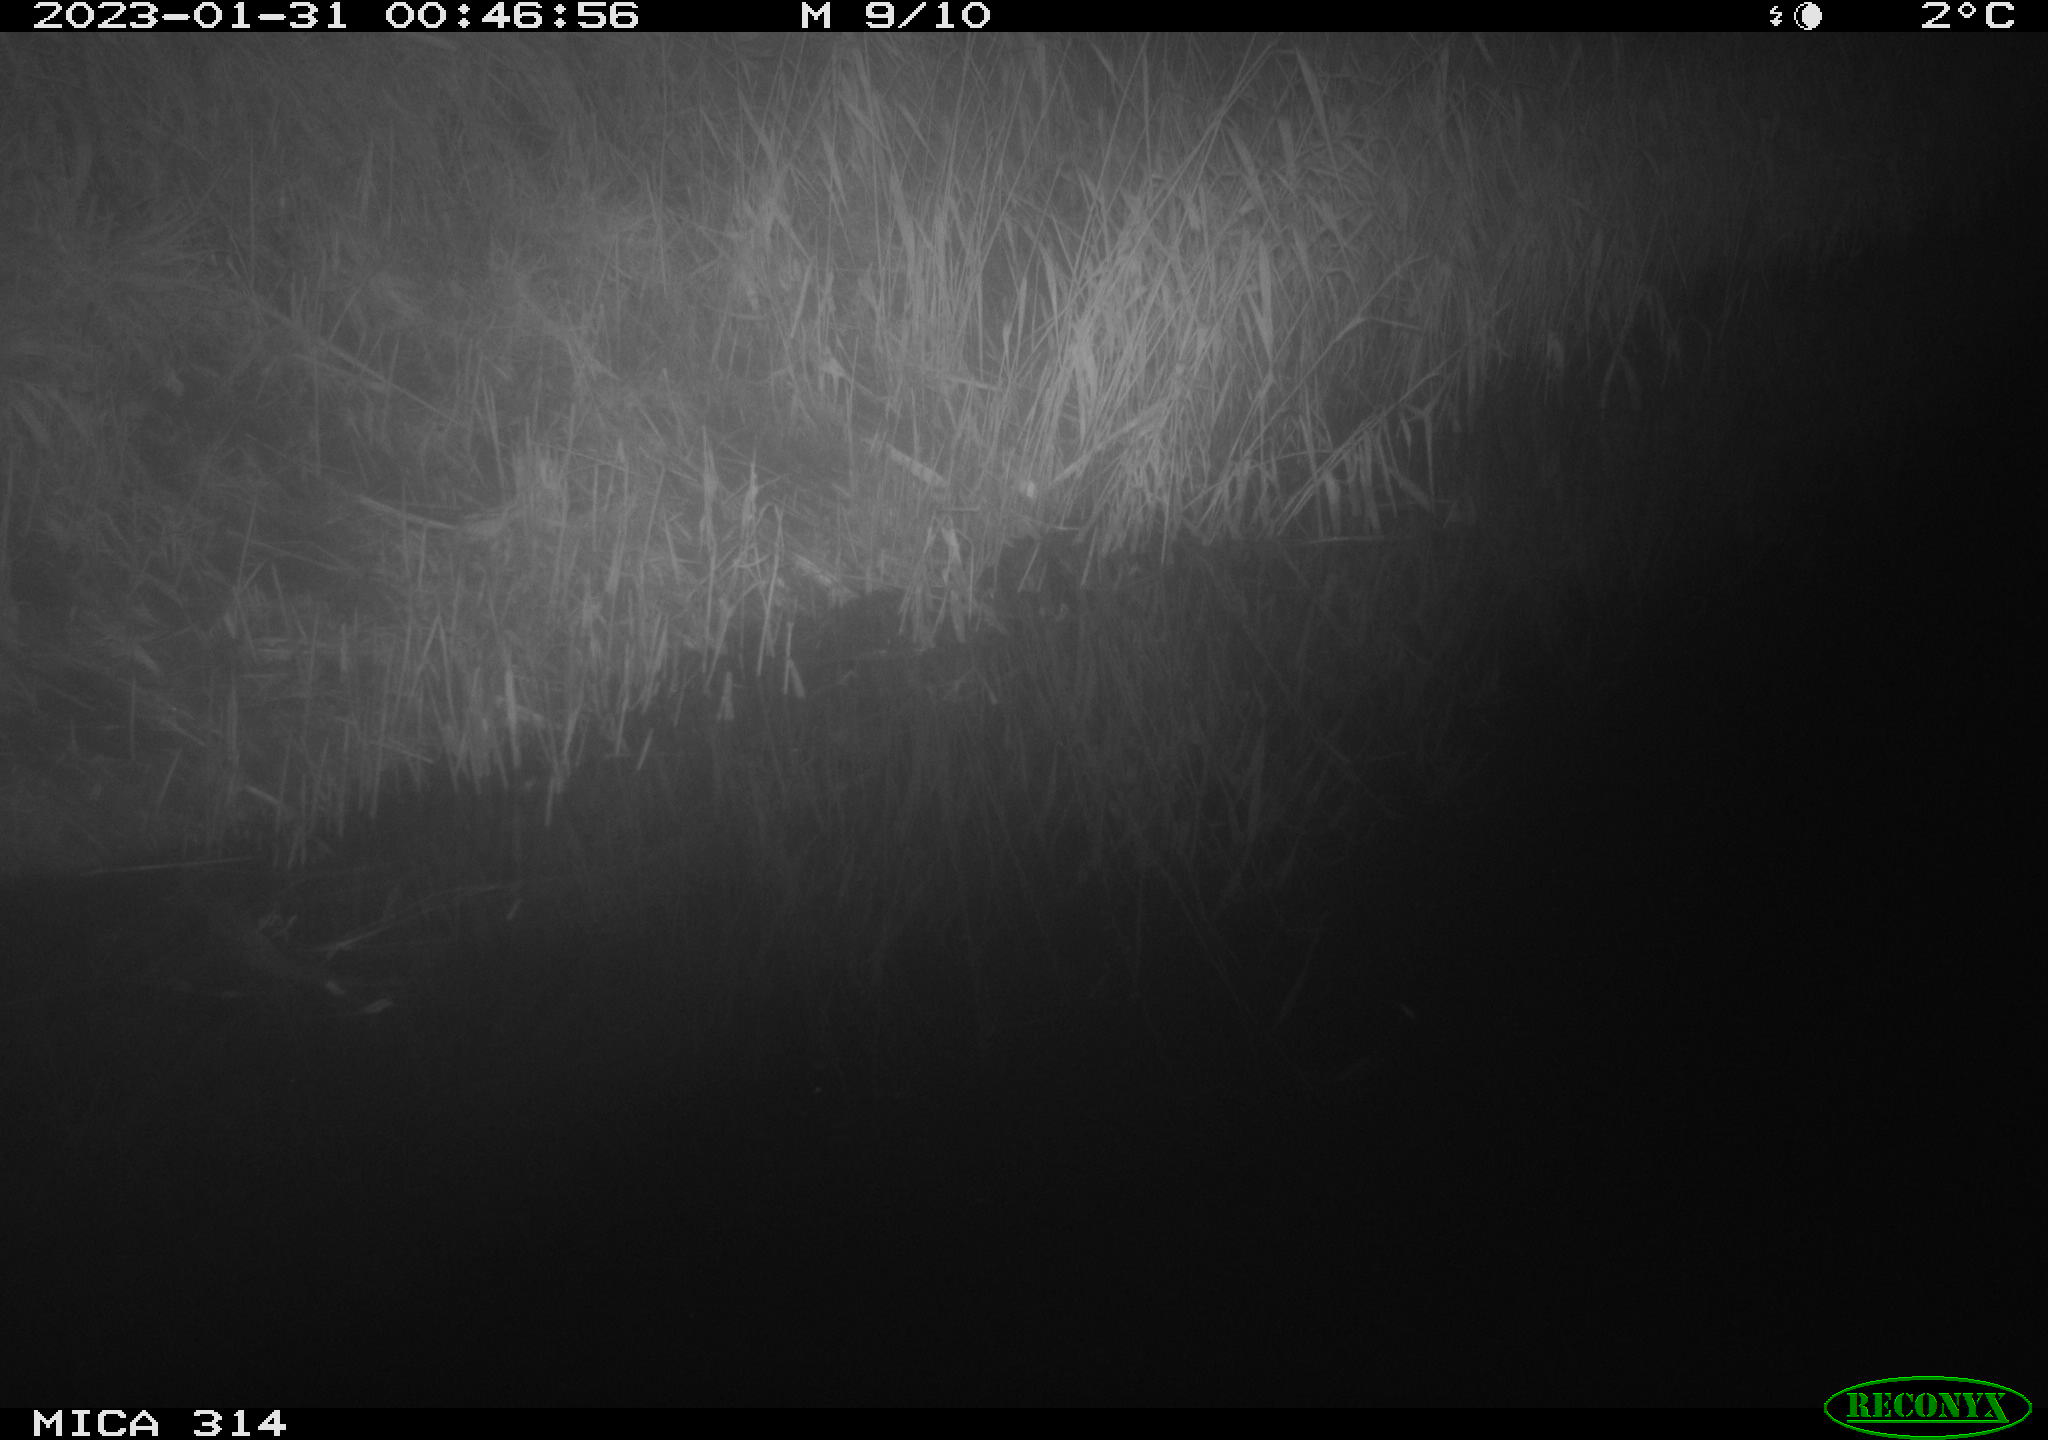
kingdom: Animalia
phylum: Chordata
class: Mammalia
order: Rodentia
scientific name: Rodentia
